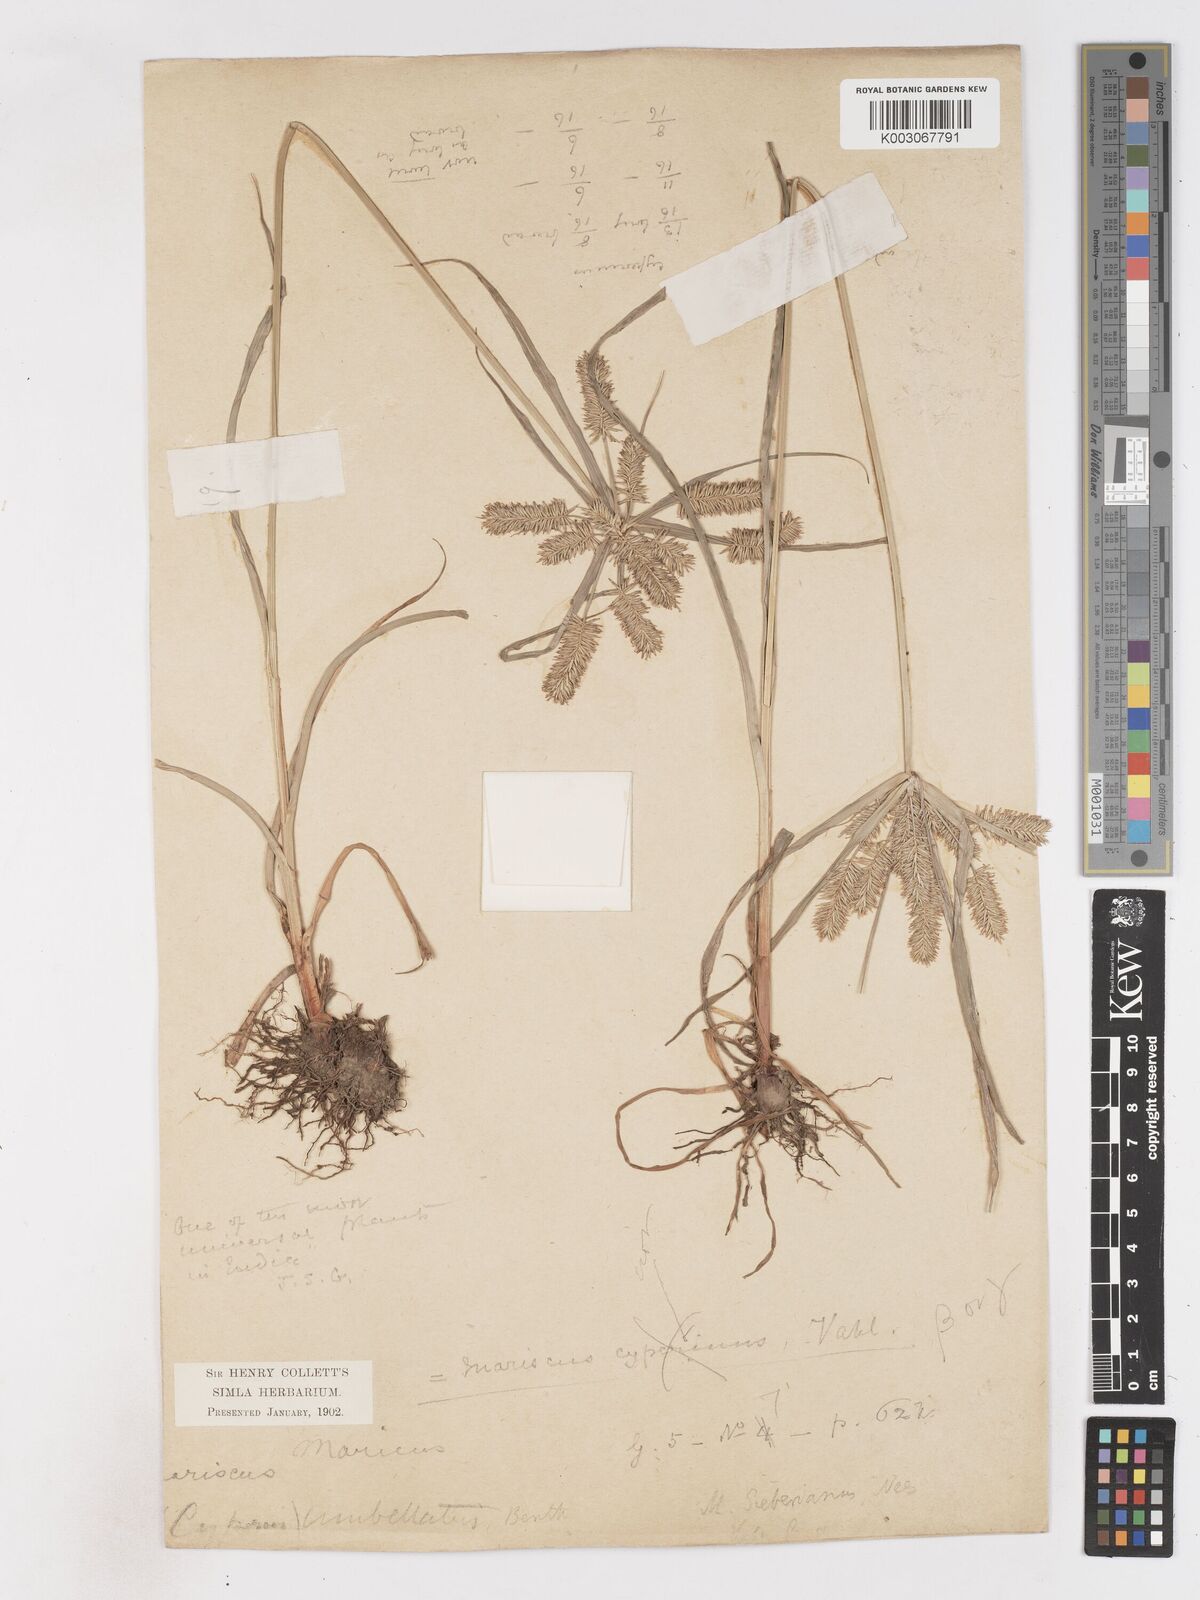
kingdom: Plantae
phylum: Tracheophyta
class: Liliopsida
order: Poales
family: Cyperaceae
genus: Cyperus
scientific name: Cyperus cyperoides
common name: Pacific island flat sedge
